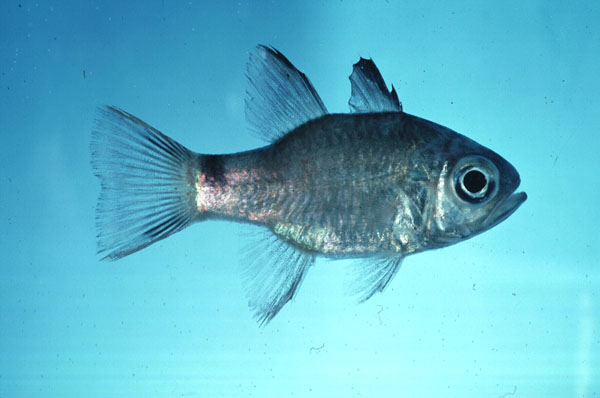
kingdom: Animalia
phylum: Chordata
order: Perciformes
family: Apogonidae
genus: Nectamia
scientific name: Nectamia savayensis
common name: Samoan cardinalfish
